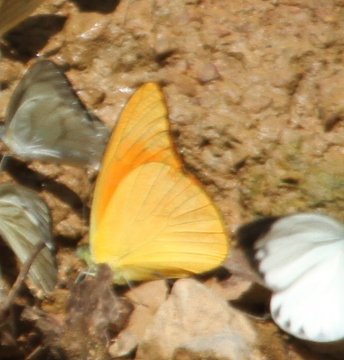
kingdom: Animalia
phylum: Arthropoda
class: Insecta
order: Lepidoptera
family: Pieridae
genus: Appias
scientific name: Appias nero
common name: Orange Albatross
